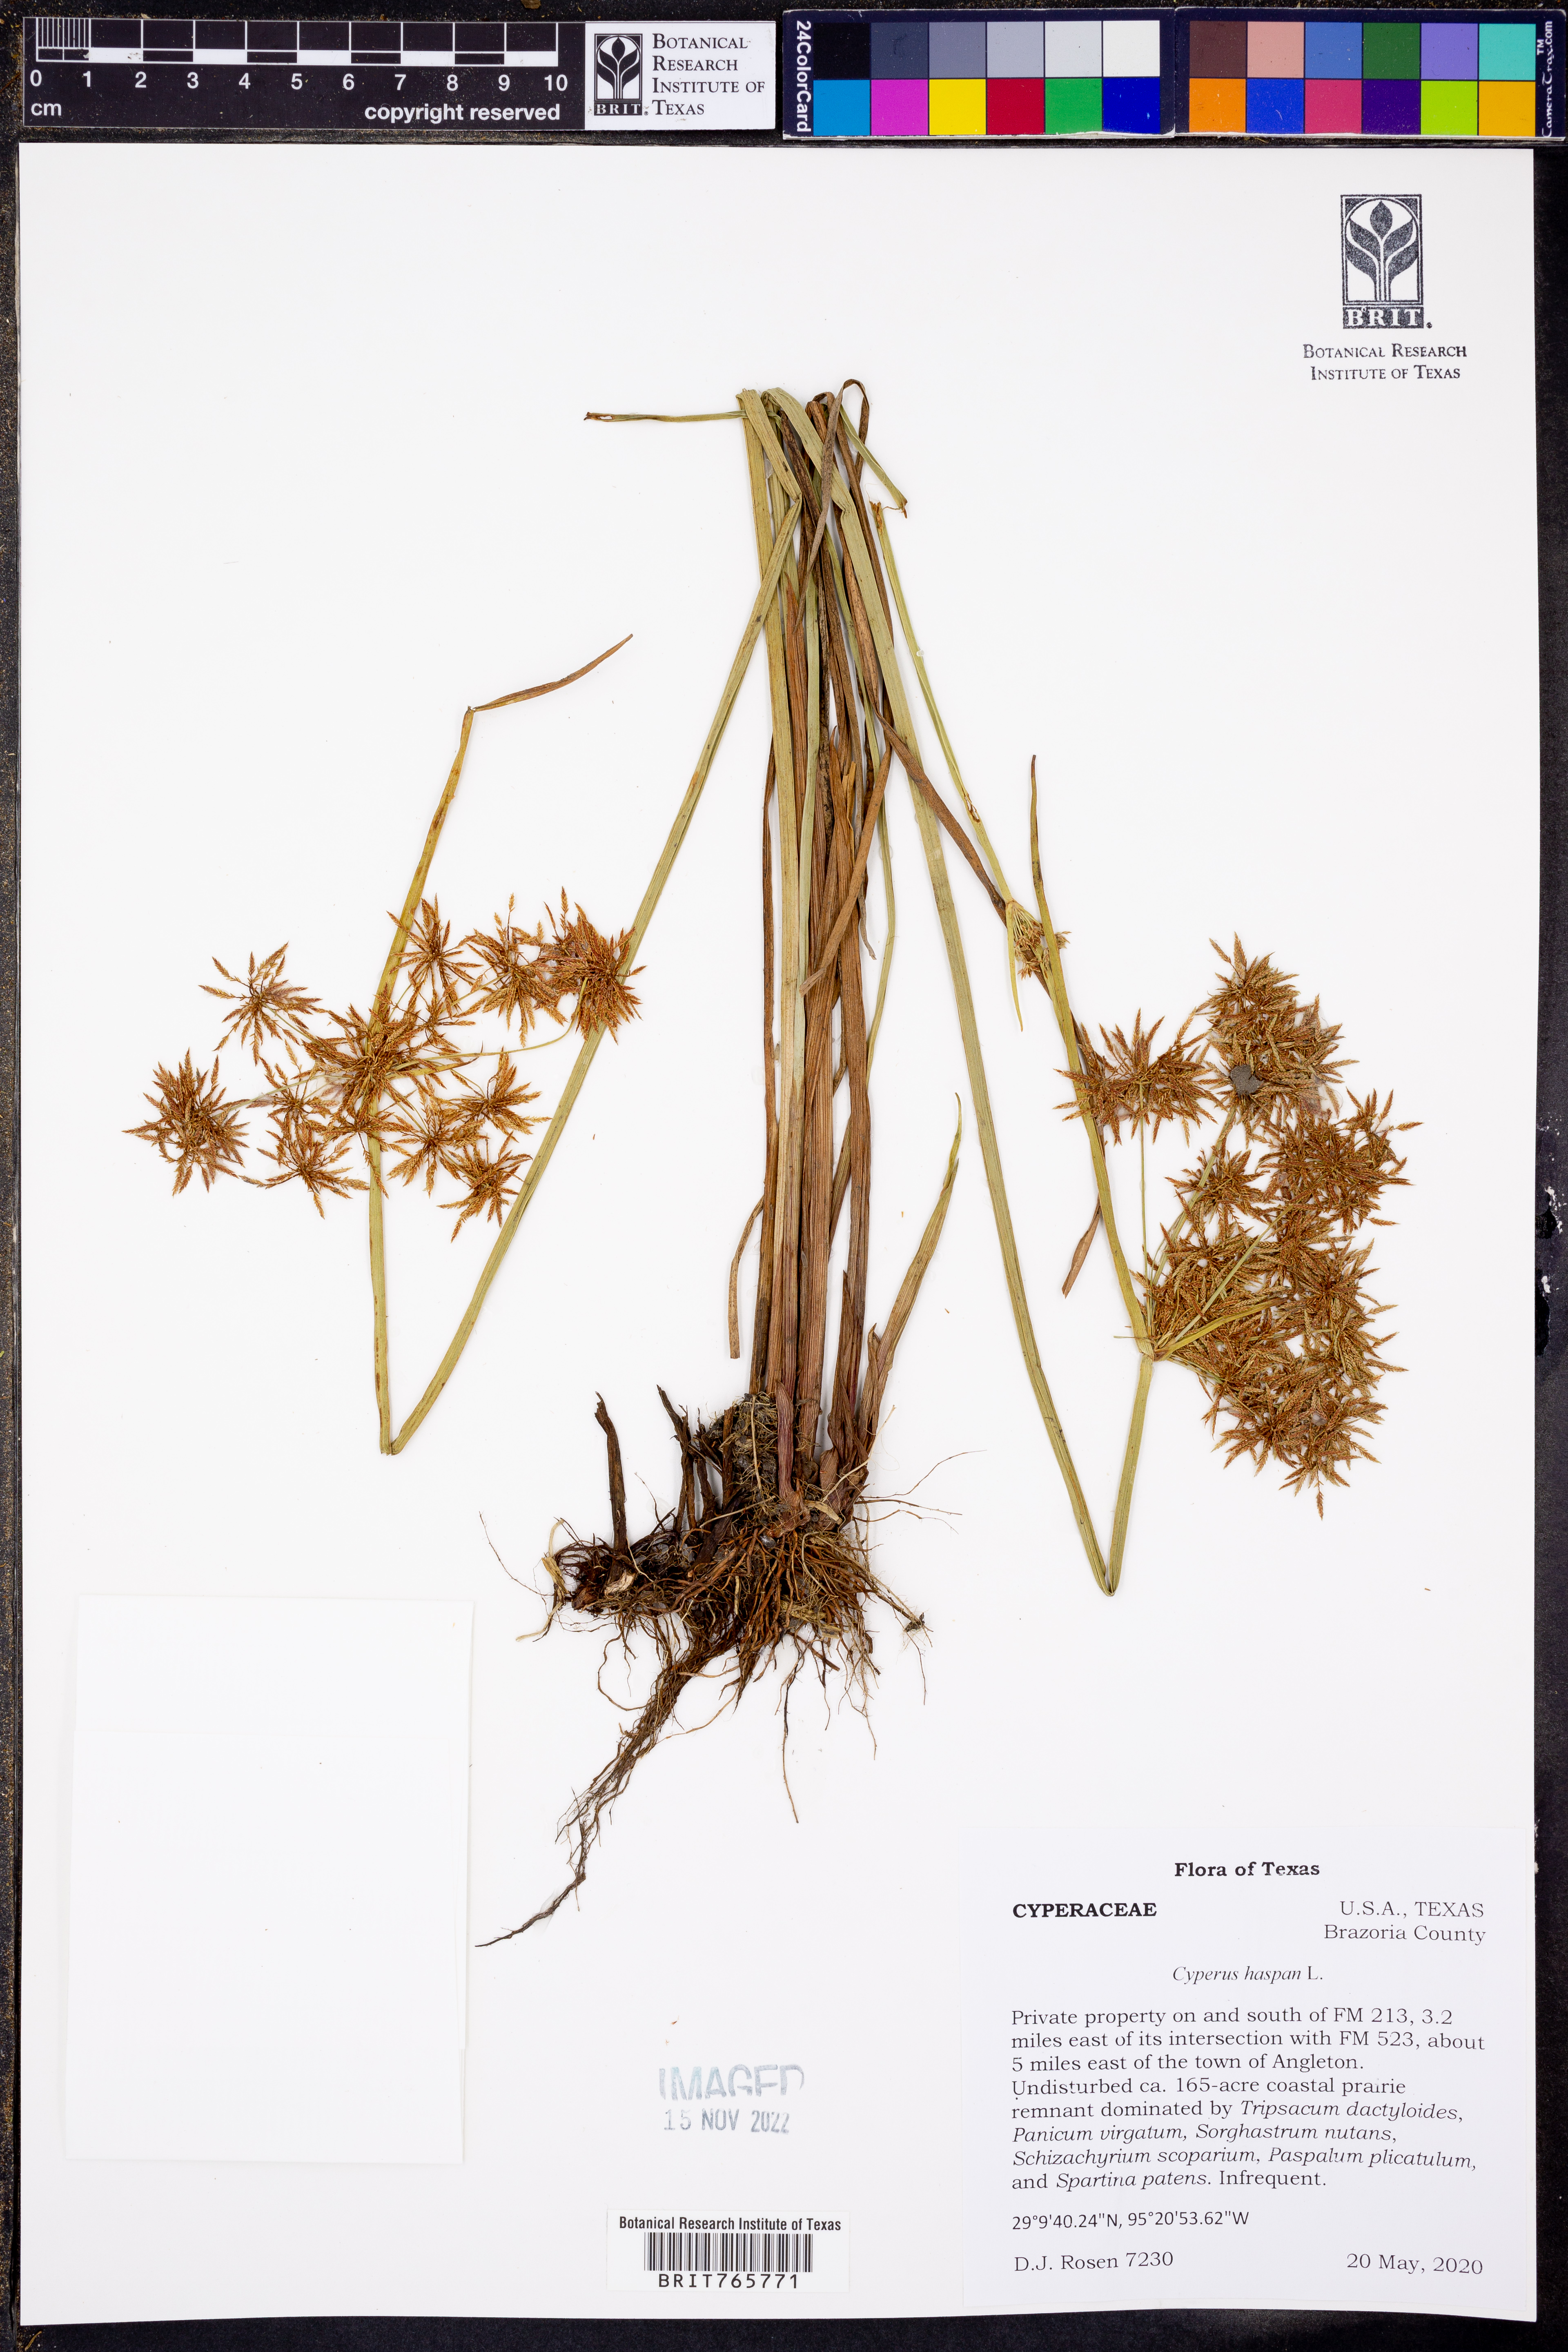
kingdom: Plantae
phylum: Tracheophyta
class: Liliopsida
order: Poales
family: Cyperaceae
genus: Cyperus
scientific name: Cyperus haspan
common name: Haspan flatsedge
